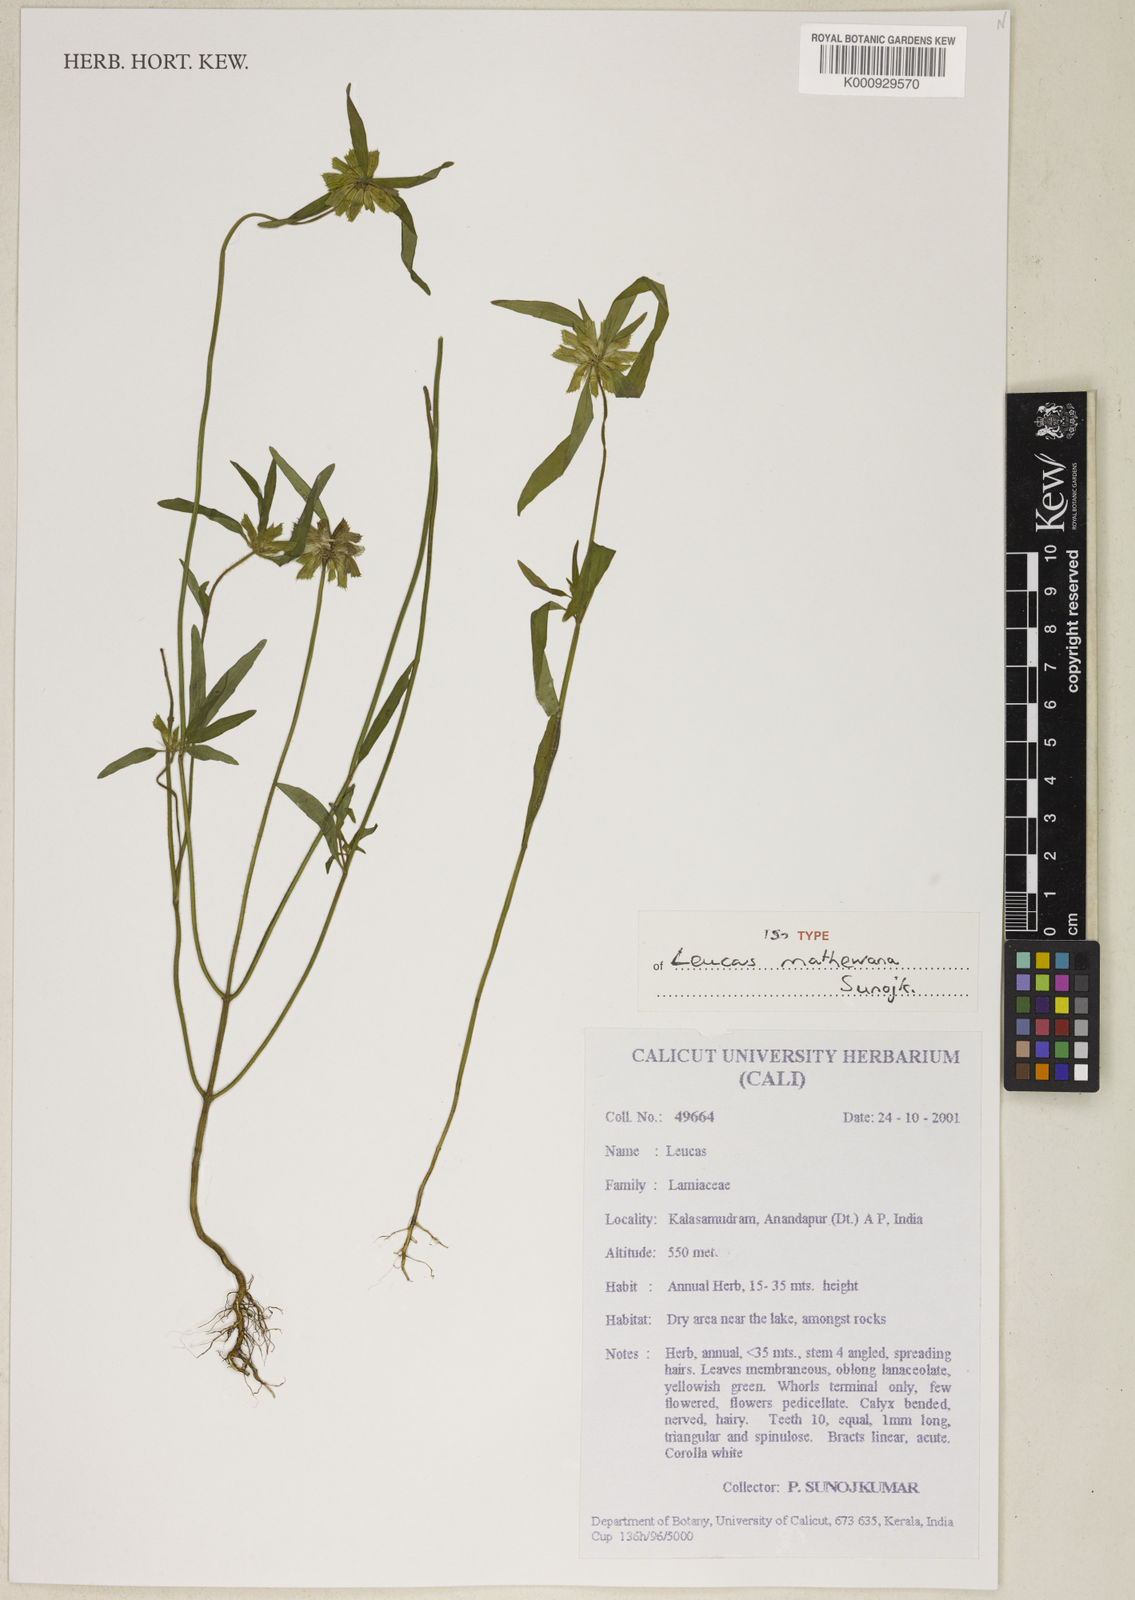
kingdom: Plantae
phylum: Tracheophyta
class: Magnoliopsida
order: Lamiales
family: Lamiaceae
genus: Leucas
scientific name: Leucas mathewiana
